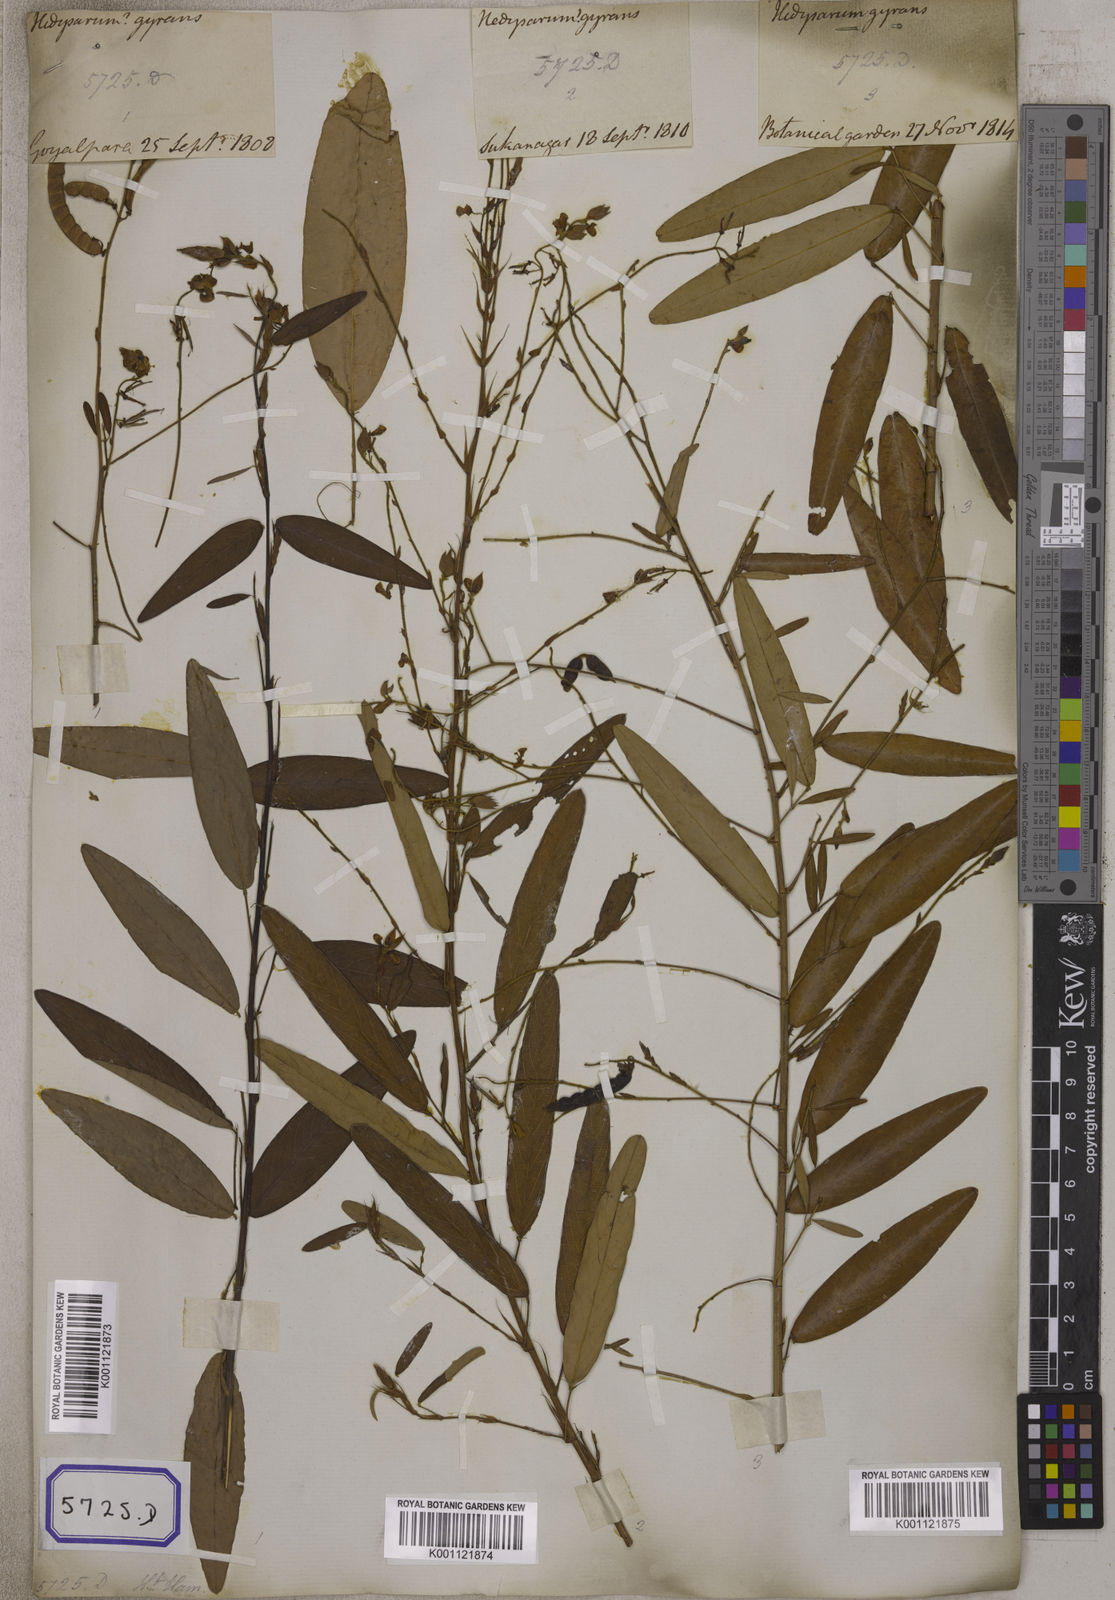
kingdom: Plantae
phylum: Tracheophyta
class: Magnoliopsida
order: Fabales
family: Fabaceae
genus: Codariocalyx
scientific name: Codariocalyx motorius
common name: Telegraph-plant
